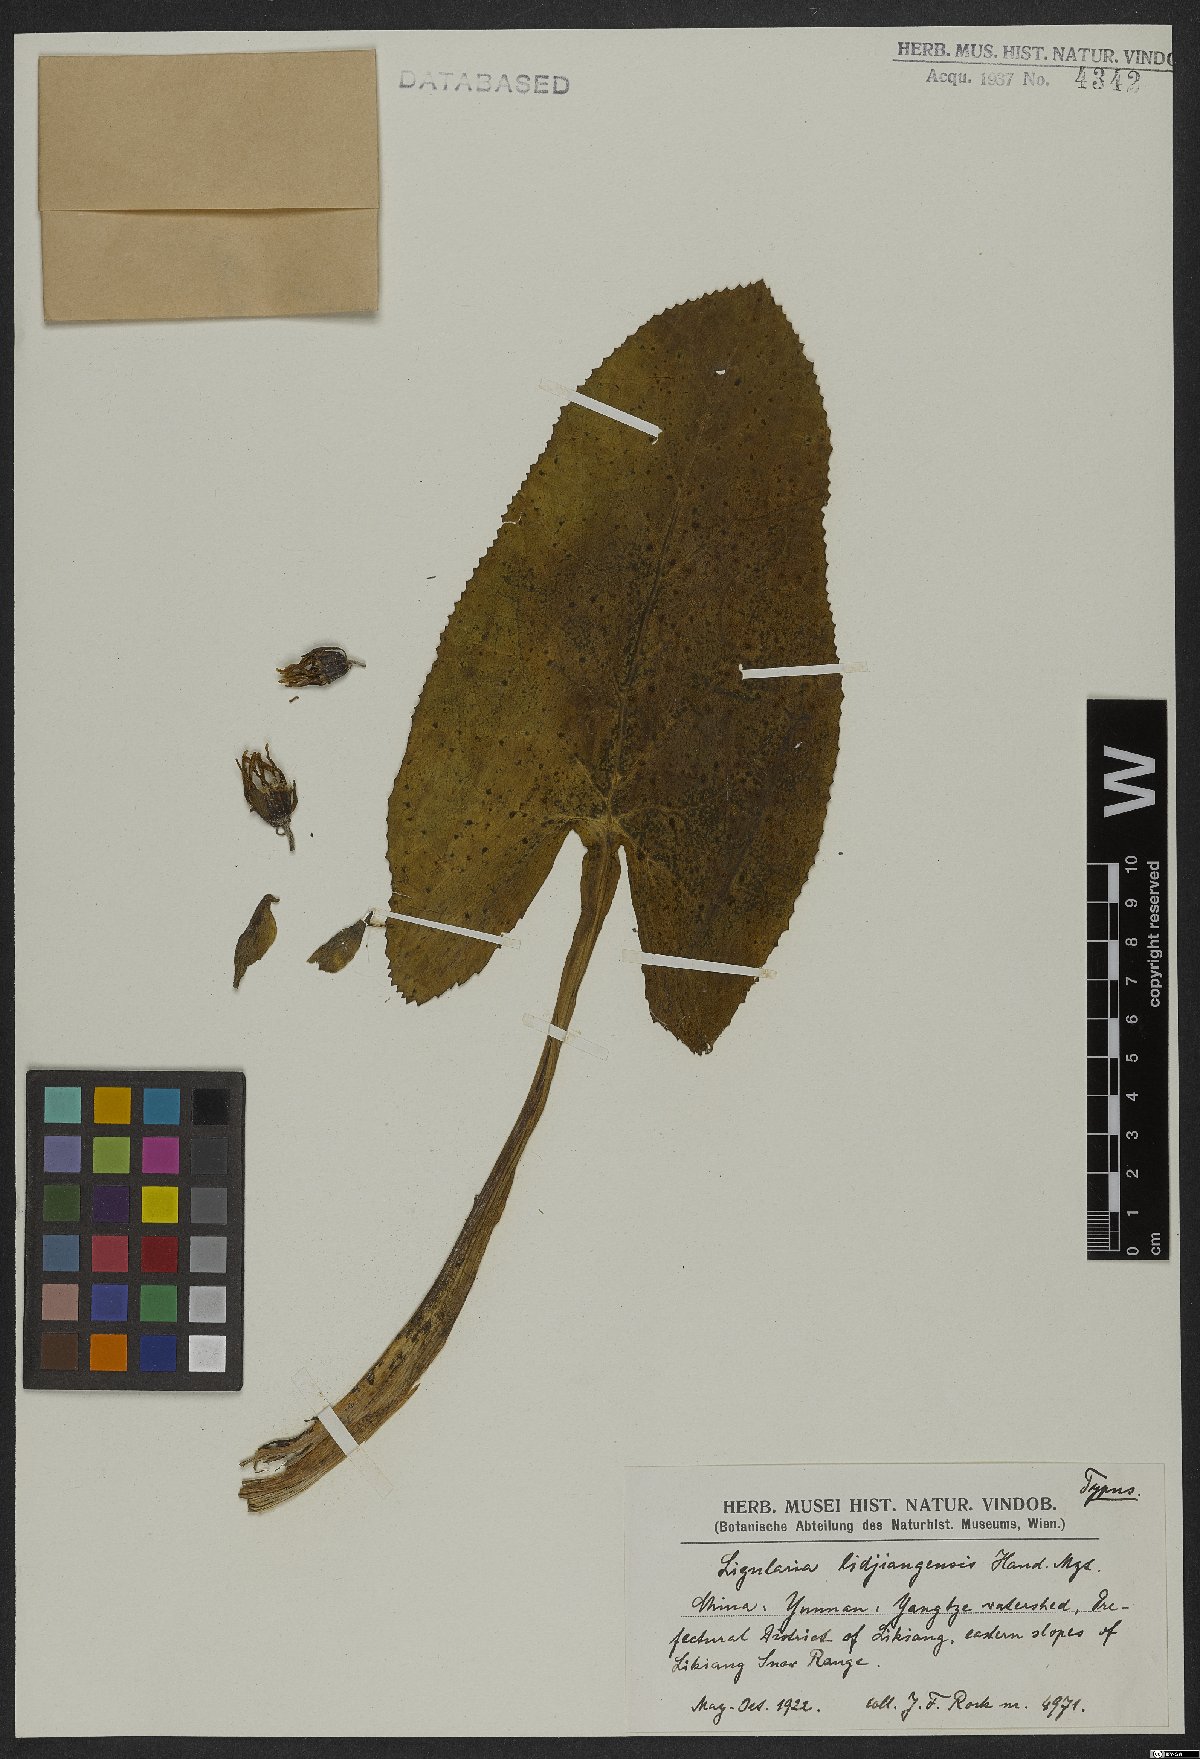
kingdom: Plantae
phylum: Tracheophyta
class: Magnoliopsida
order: Asterales
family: Asteraceae
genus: Ligularia
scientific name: Ligularia lidjiangensis
